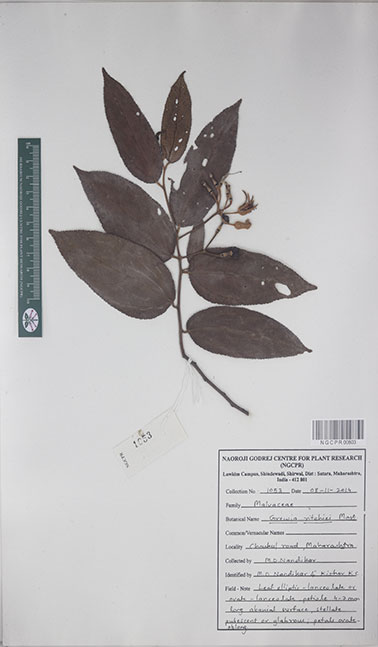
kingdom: Plantae
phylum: Tracheophyta
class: Magnoliopsida
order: Malvales
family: Malvaceae
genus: Grewia
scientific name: Grewia ritchiei
